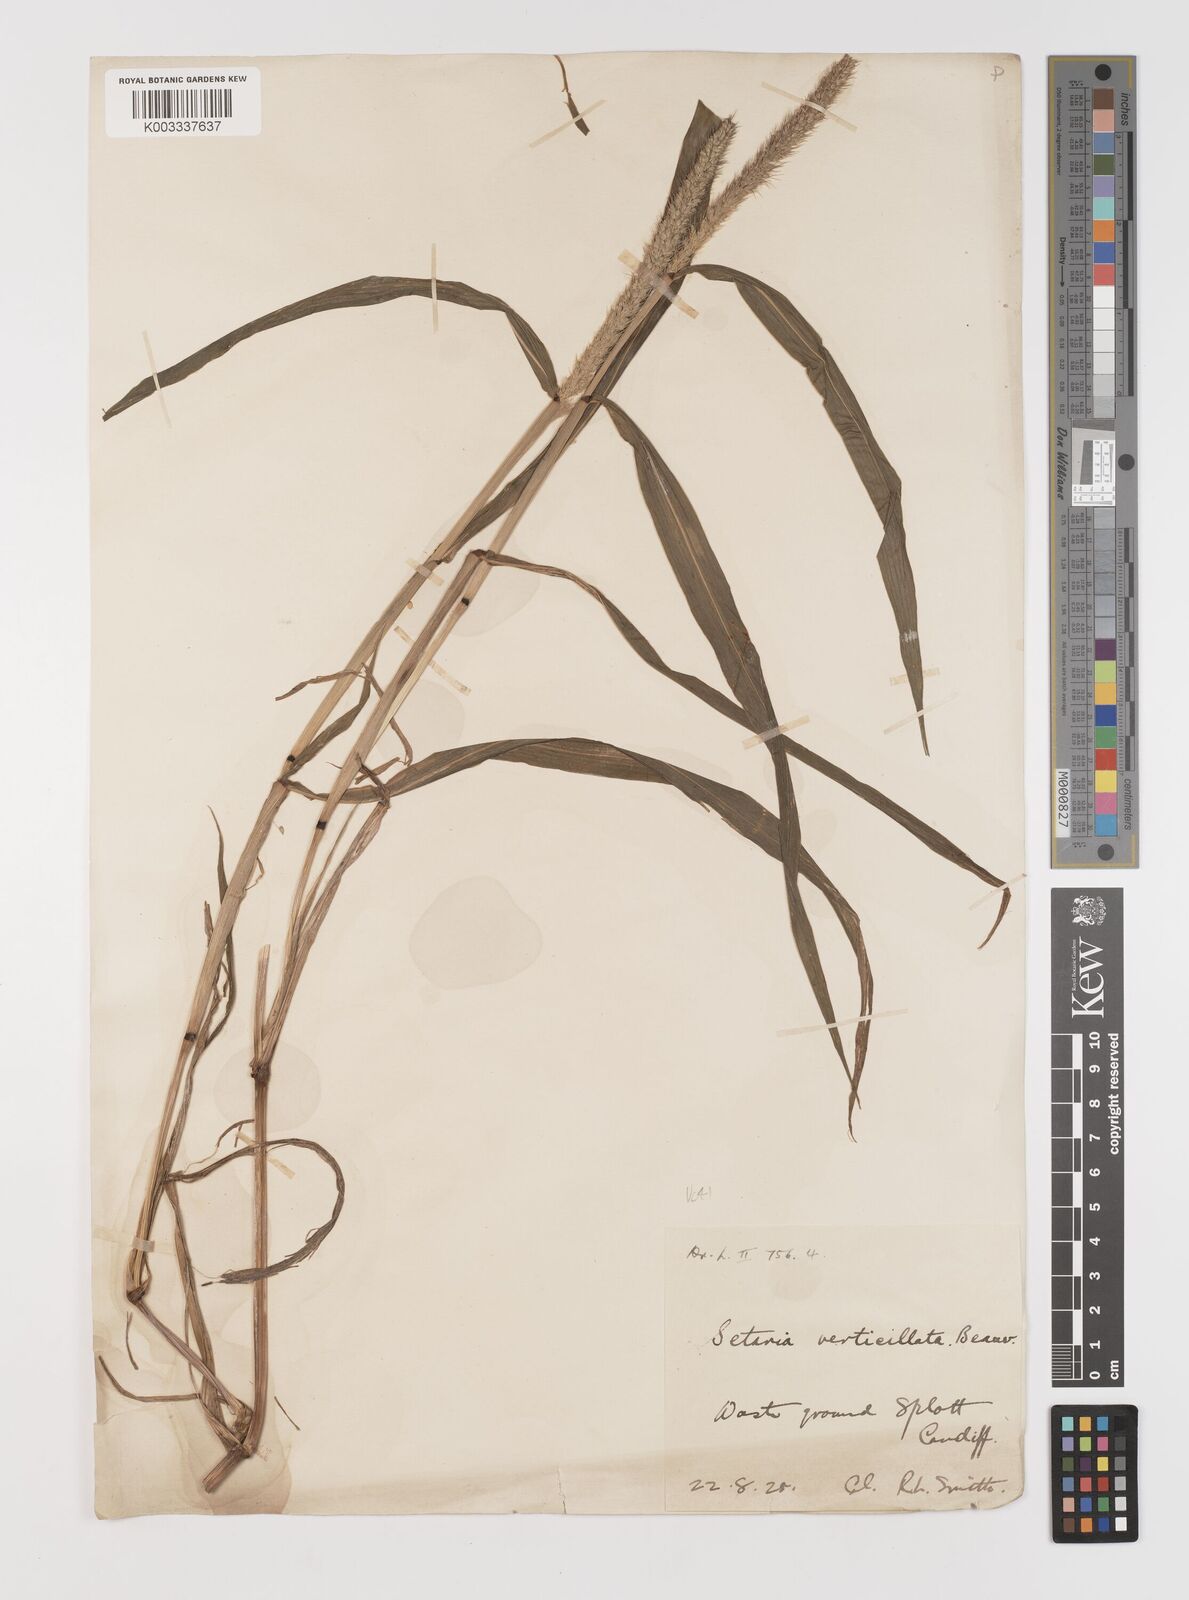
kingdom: Plantae
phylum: Tracheophyta
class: Liliopsida
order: Poales
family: Poaceae
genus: Setaria
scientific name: Setaria verticillata
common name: Hooked bristlegrass
